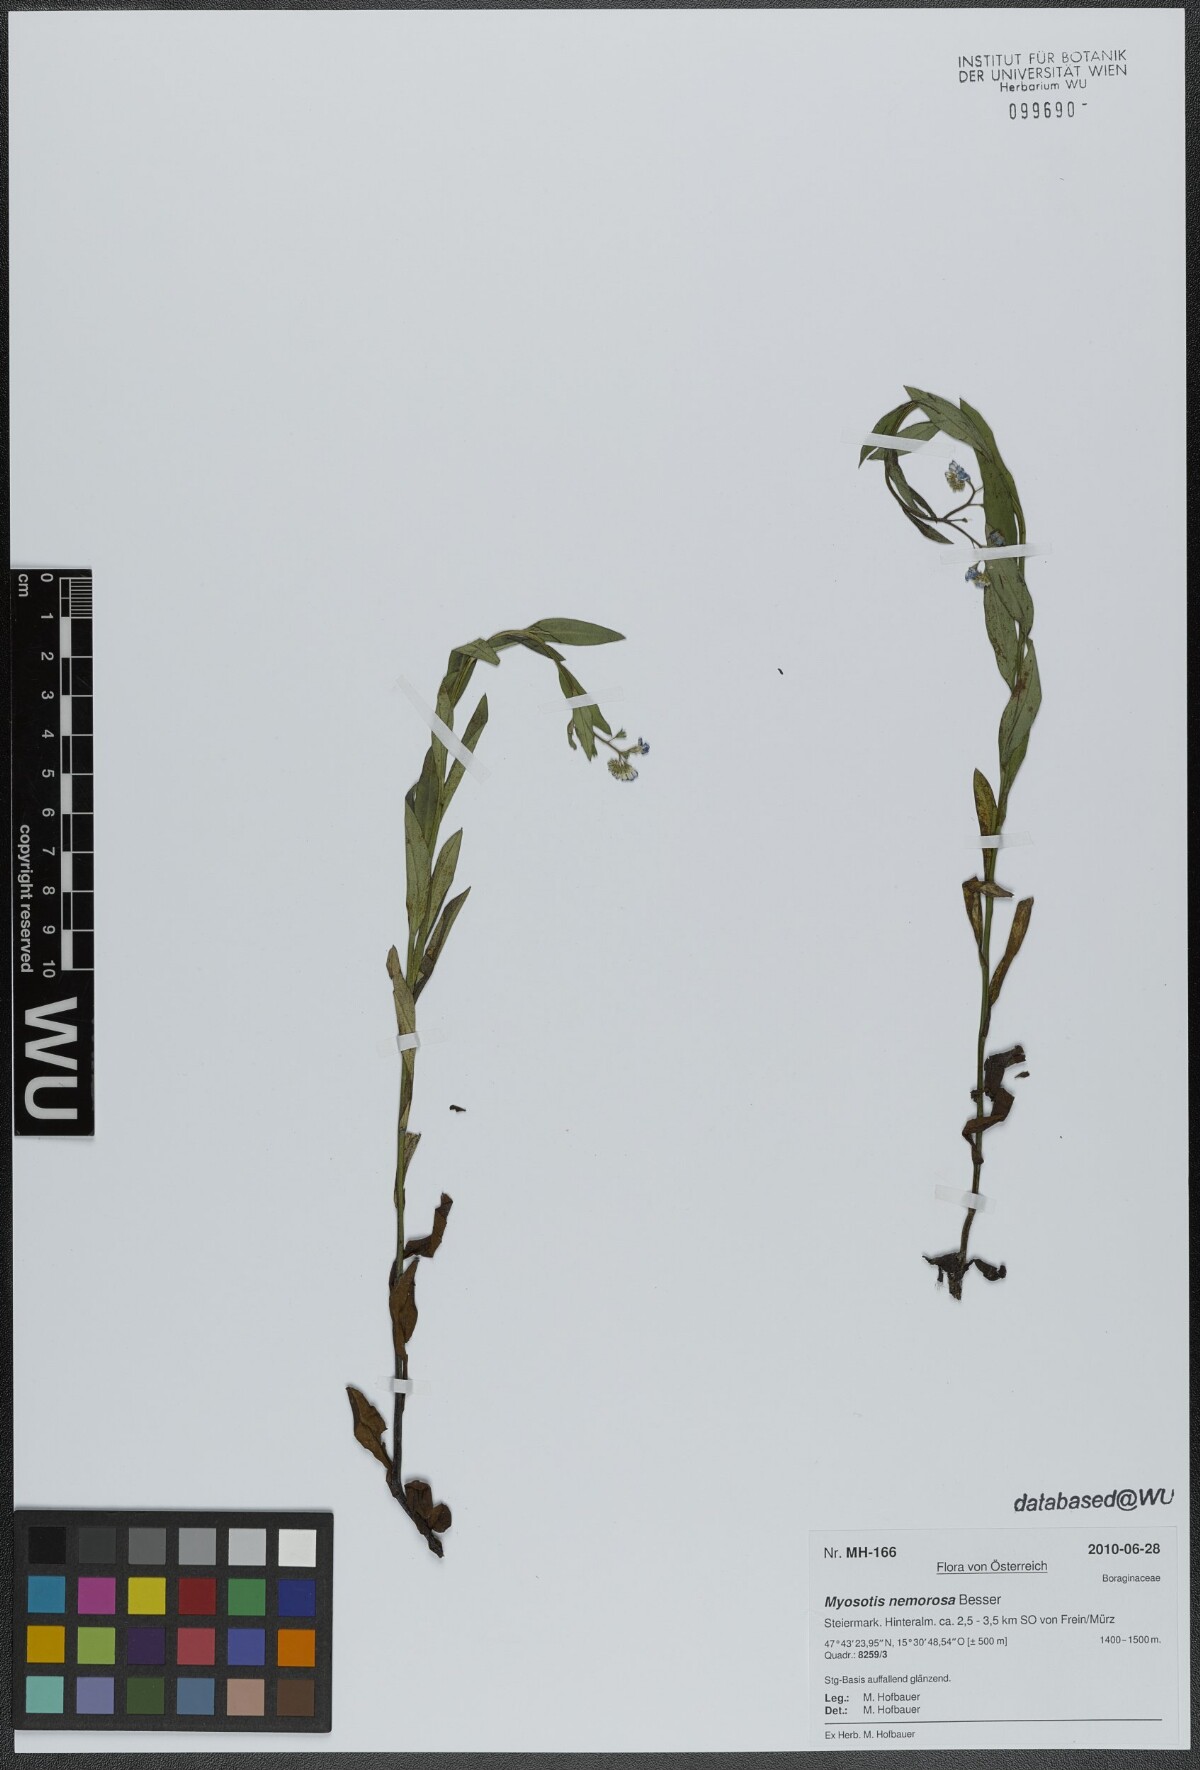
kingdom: Plantae
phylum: Tracheophyta
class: Magnoliopsida
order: Boraginales
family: Boraginaceae
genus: Myosotis
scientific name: Myosotis nemorosa
